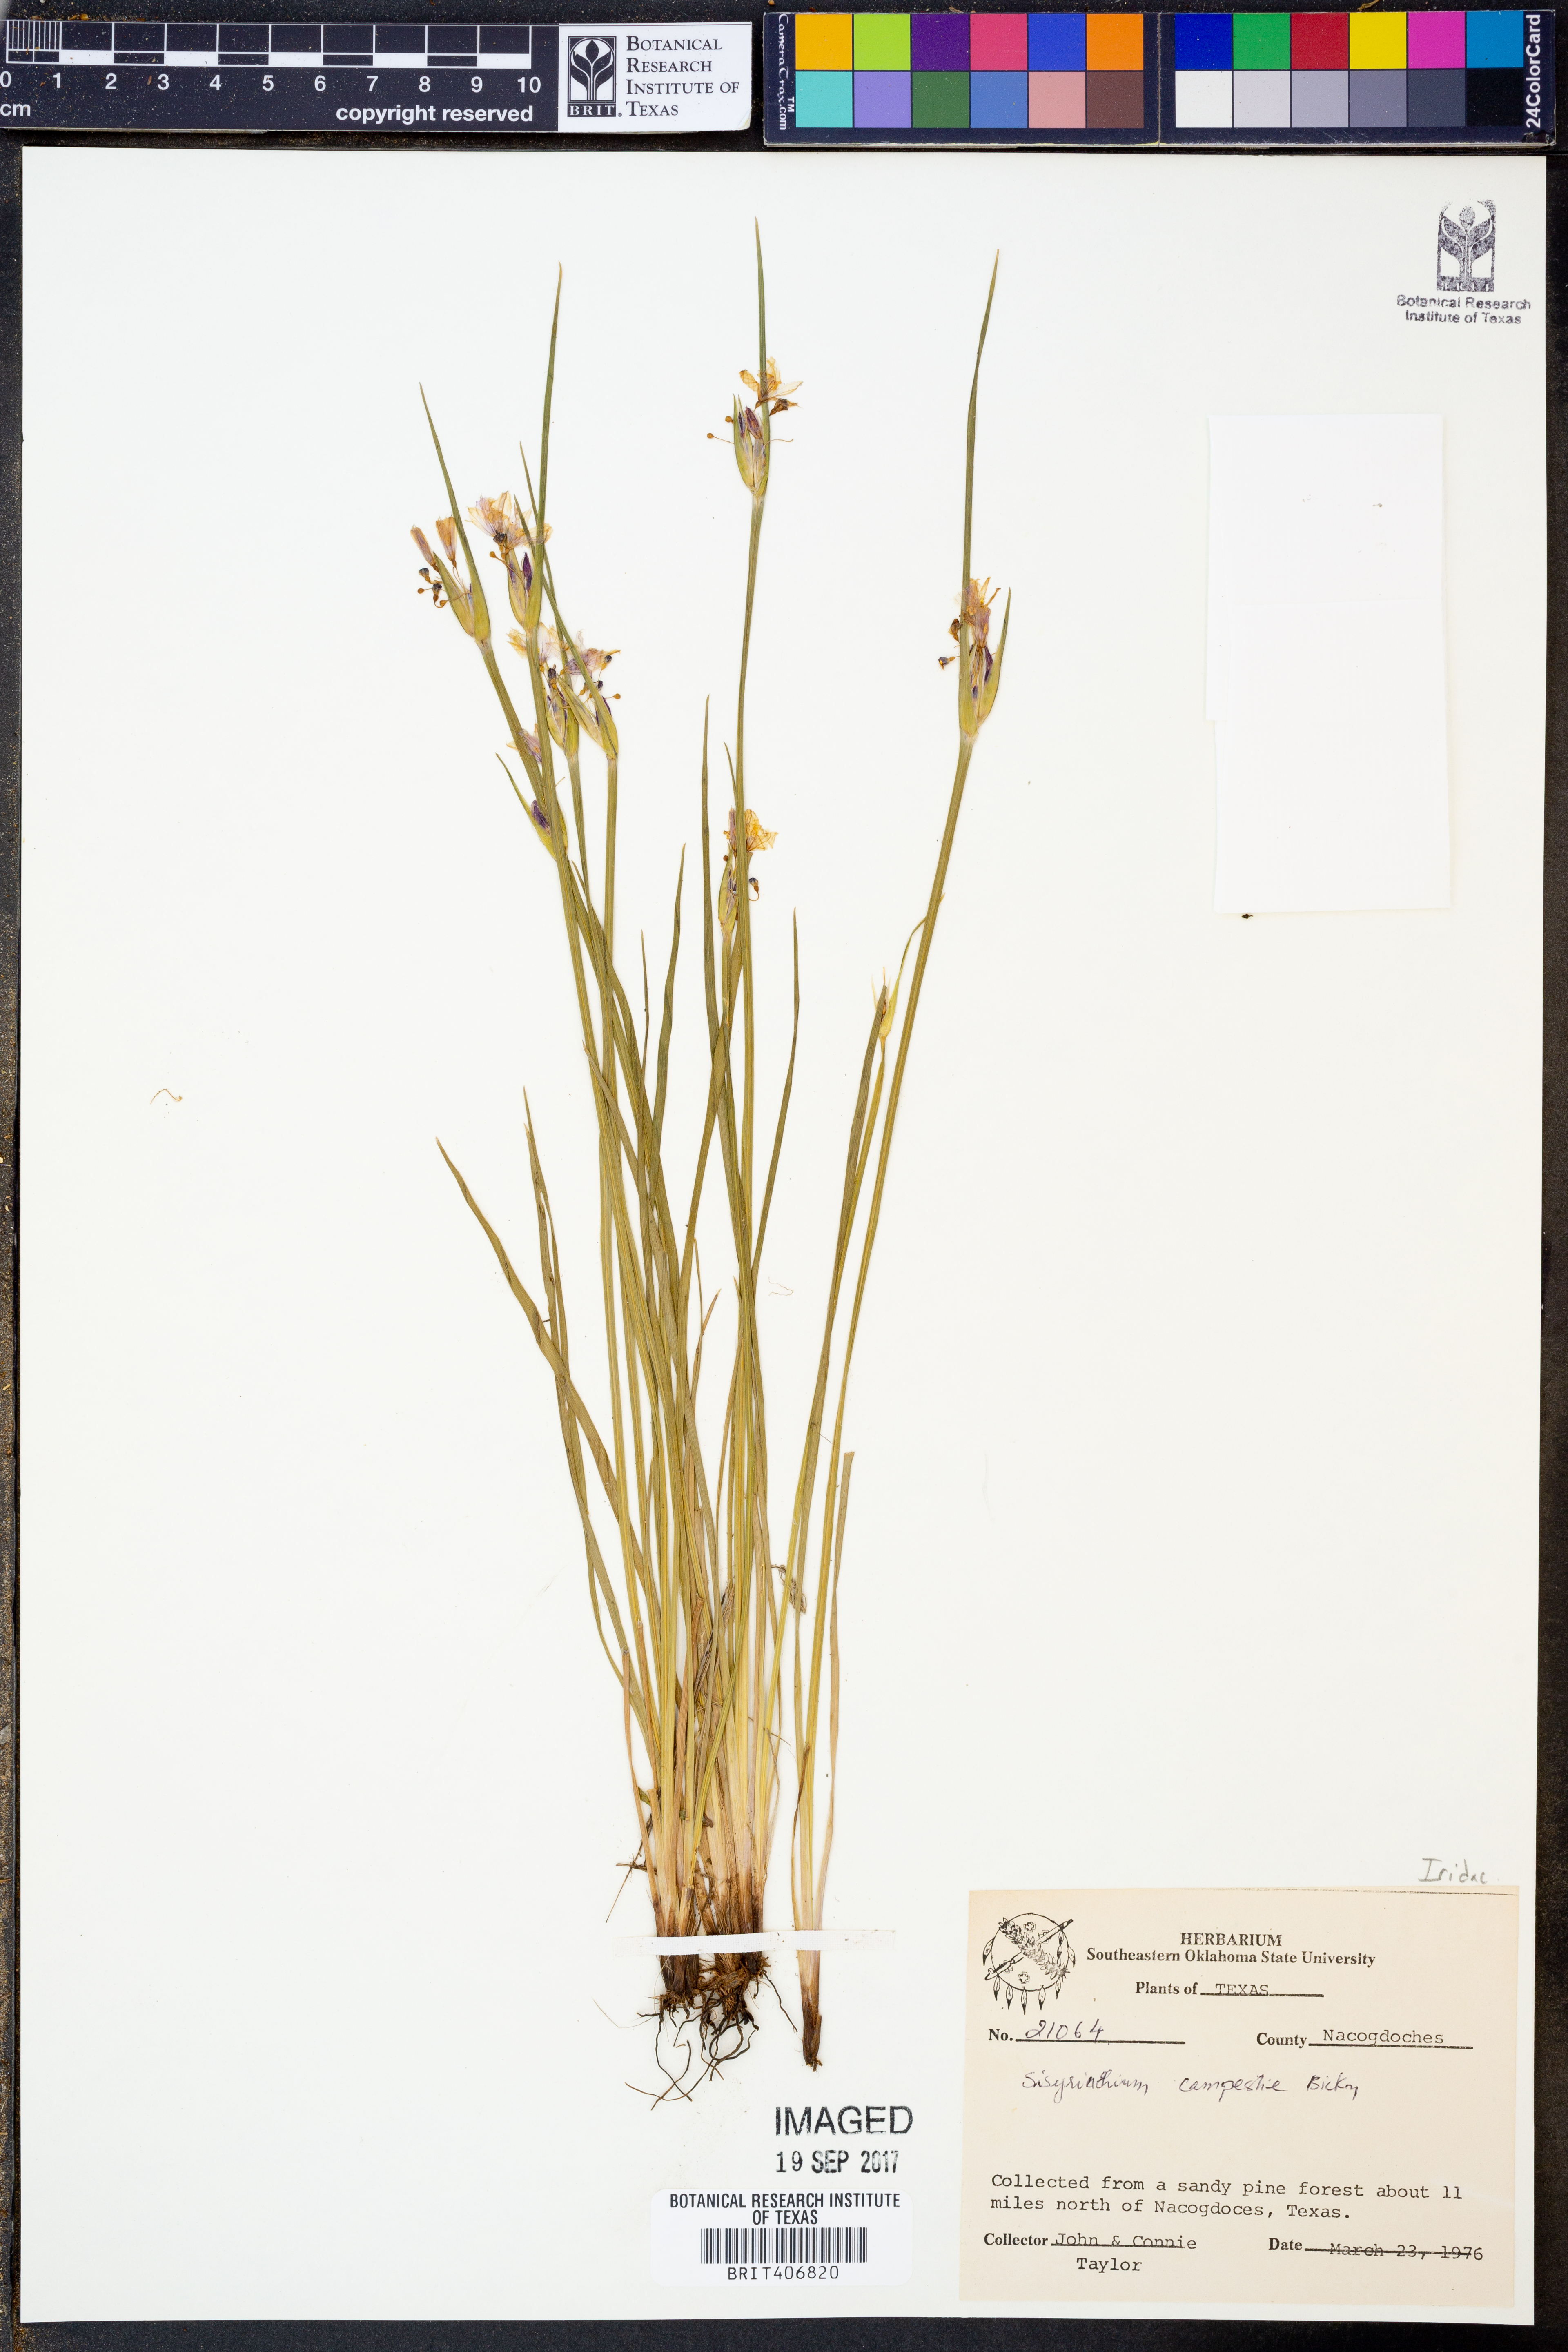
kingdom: Plantae
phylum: Tracheophyta
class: Liliopsida
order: Asparagales
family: Iridaceae
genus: Sisyrinchium
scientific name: Sisyrinchium campestre
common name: Prairie blue-eyed-grass
